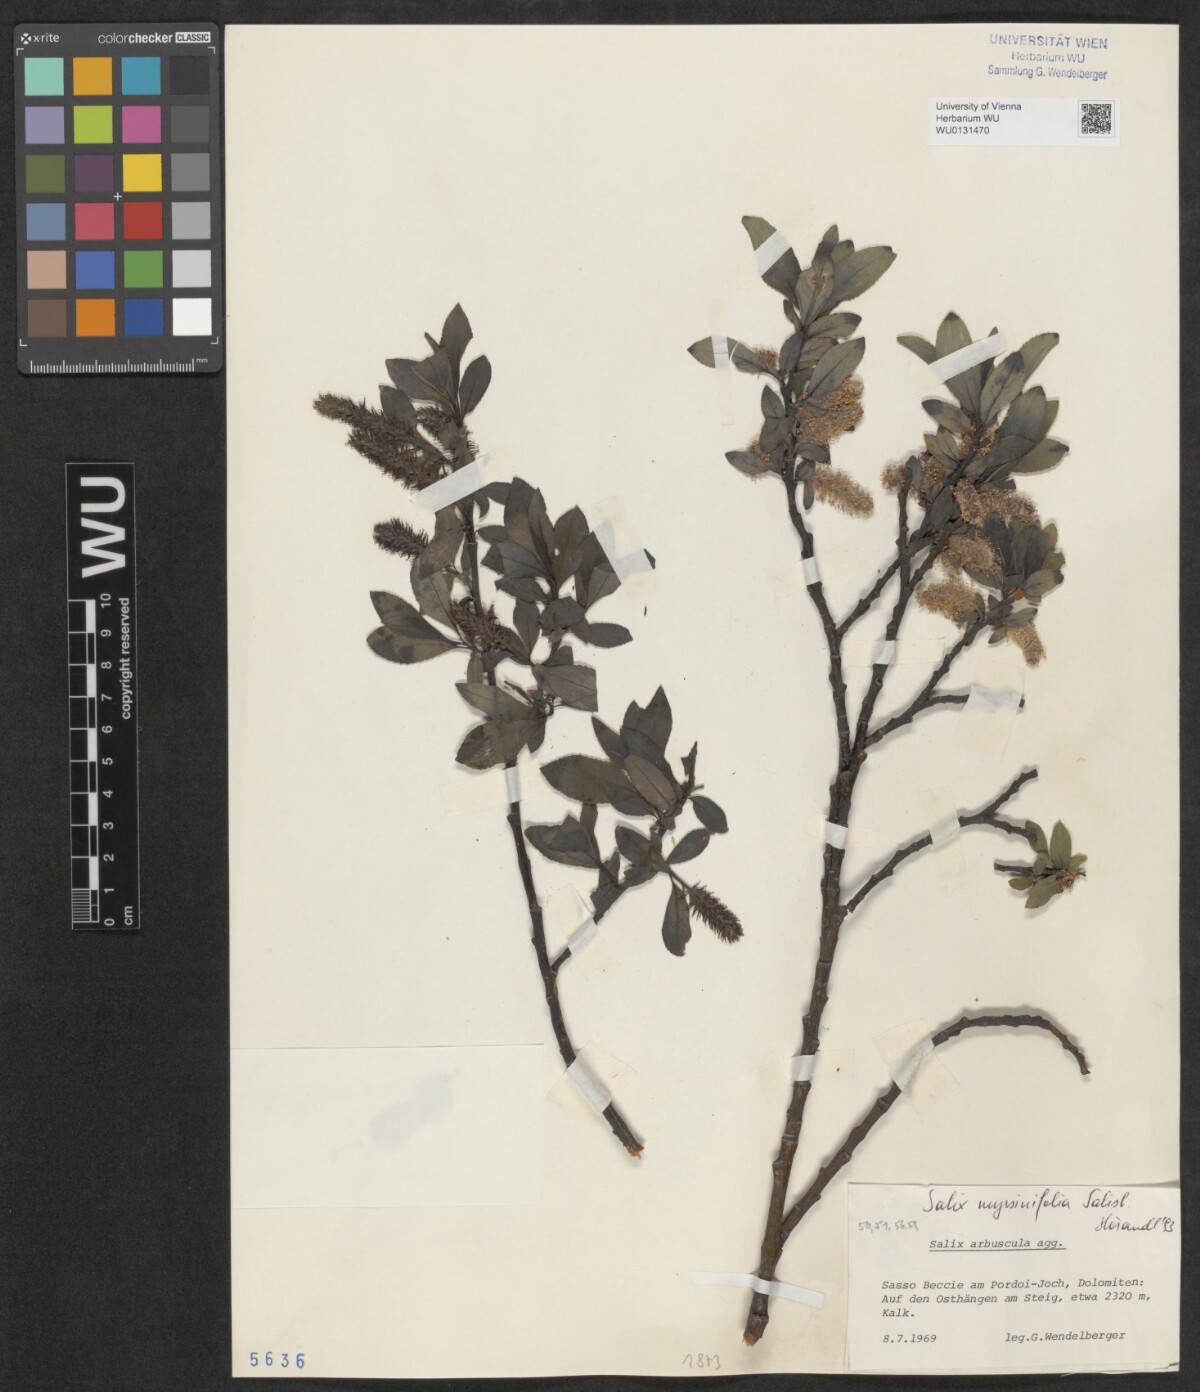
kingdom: Plantae
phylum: Tracheophyta
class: Magnoliopsida
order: Malpighiales
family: Salicaceae
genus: Salix
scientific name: Salix myrsinifolia
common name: Dark-leaved willow
